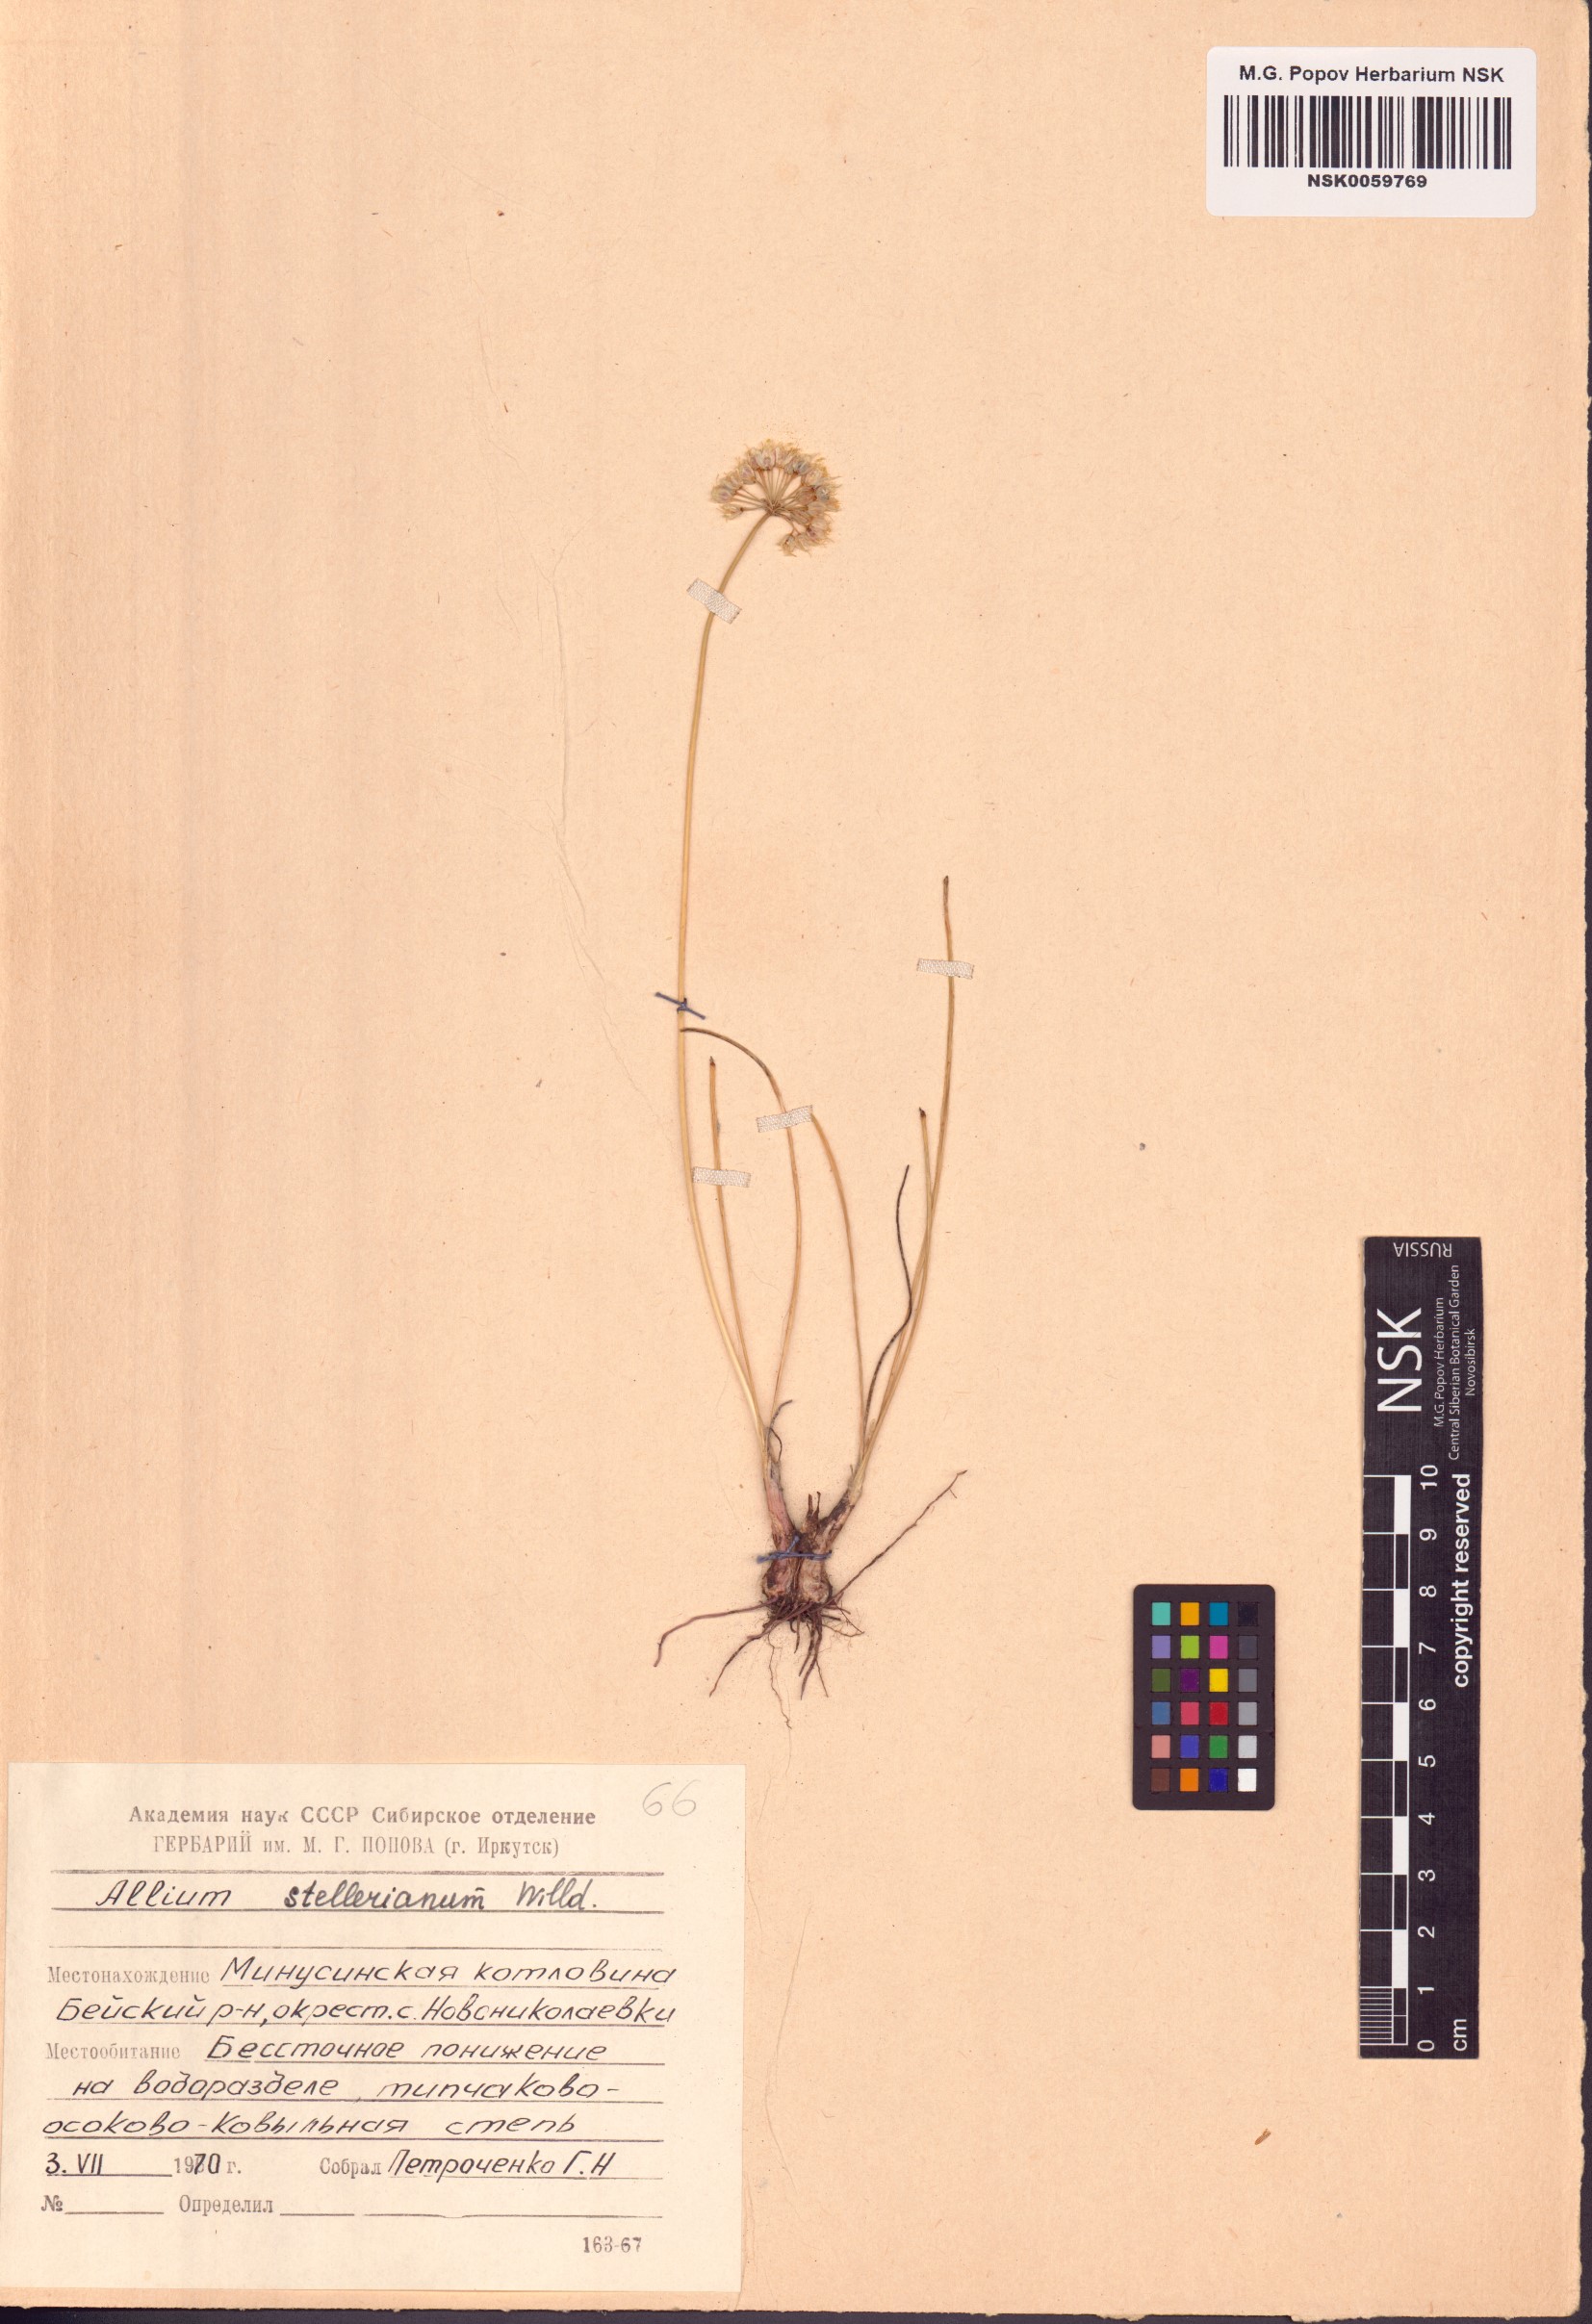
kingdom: Plantae
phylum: Tracheophyta
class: Liliopsida
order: Asparagales
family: Amaryllidaceae
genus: Allium
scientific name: Allium stellerianum
